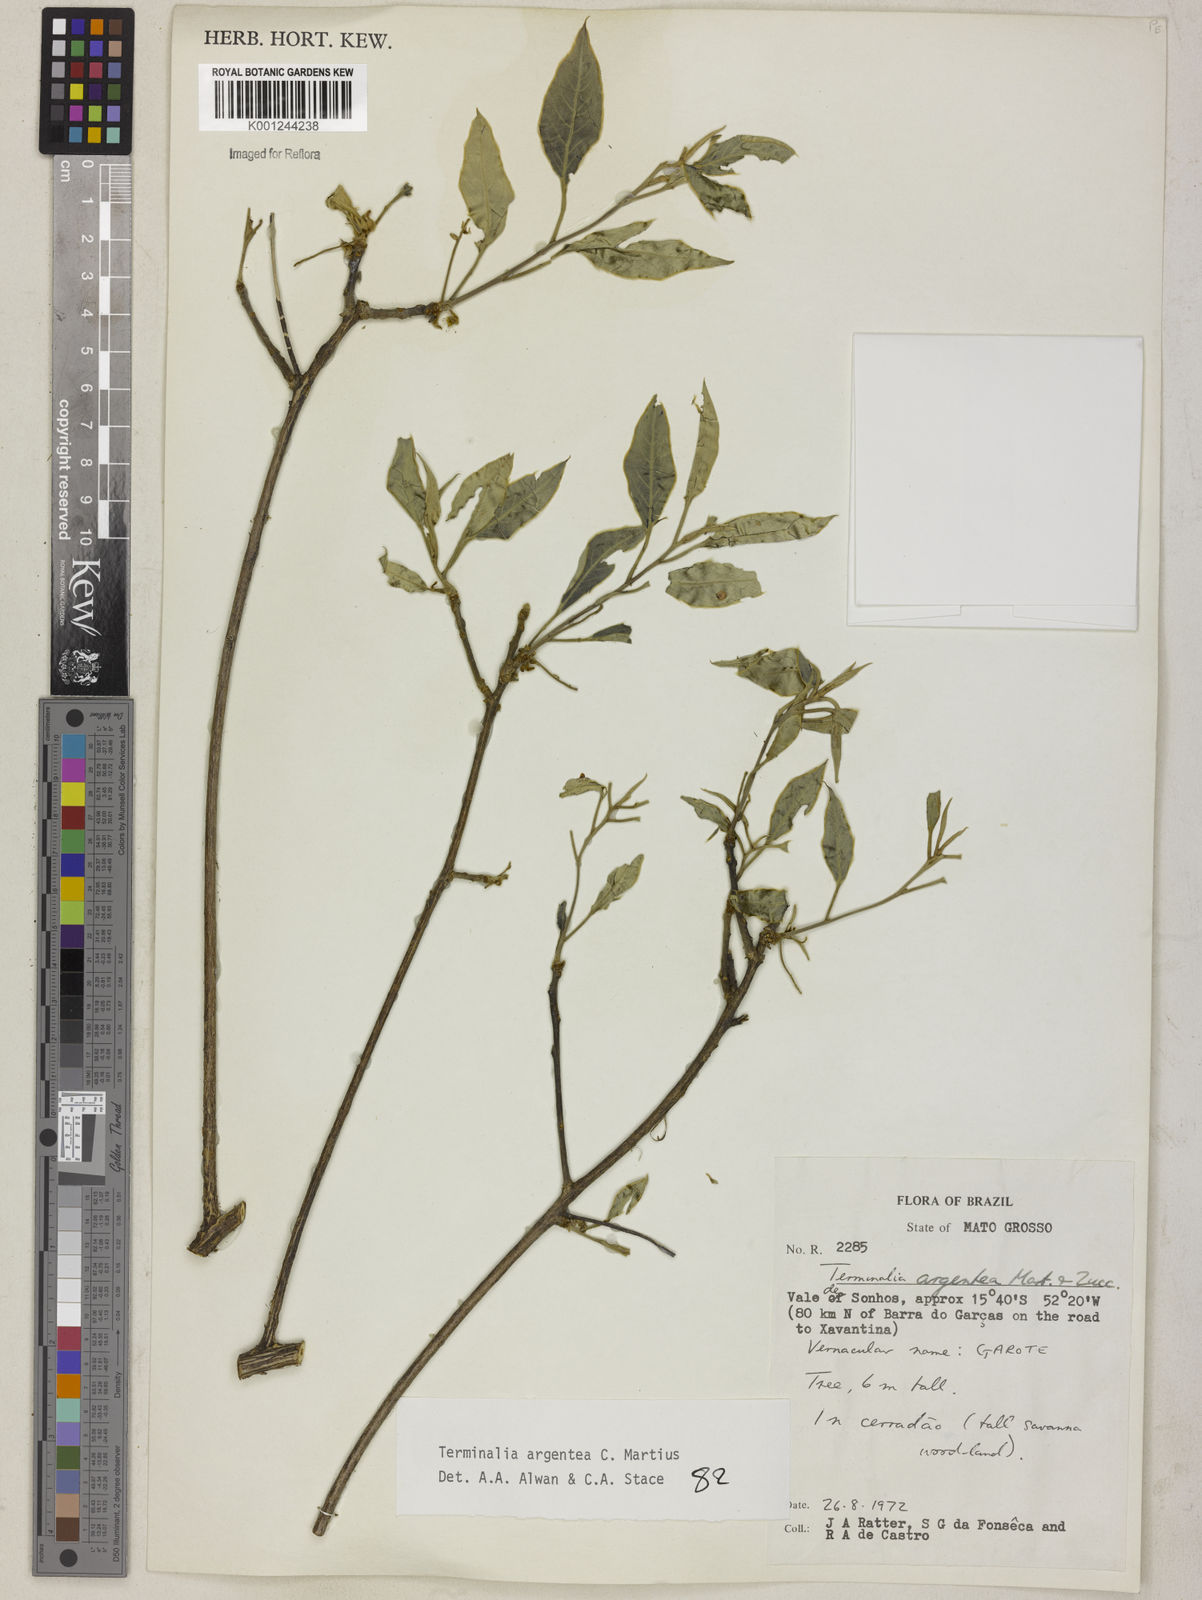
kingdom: Plantae
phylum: Tracheophyta
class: Magnoliopsida
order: Myrtales
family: Combretaceae
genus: Terminalia
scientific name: Terminalia argentea
